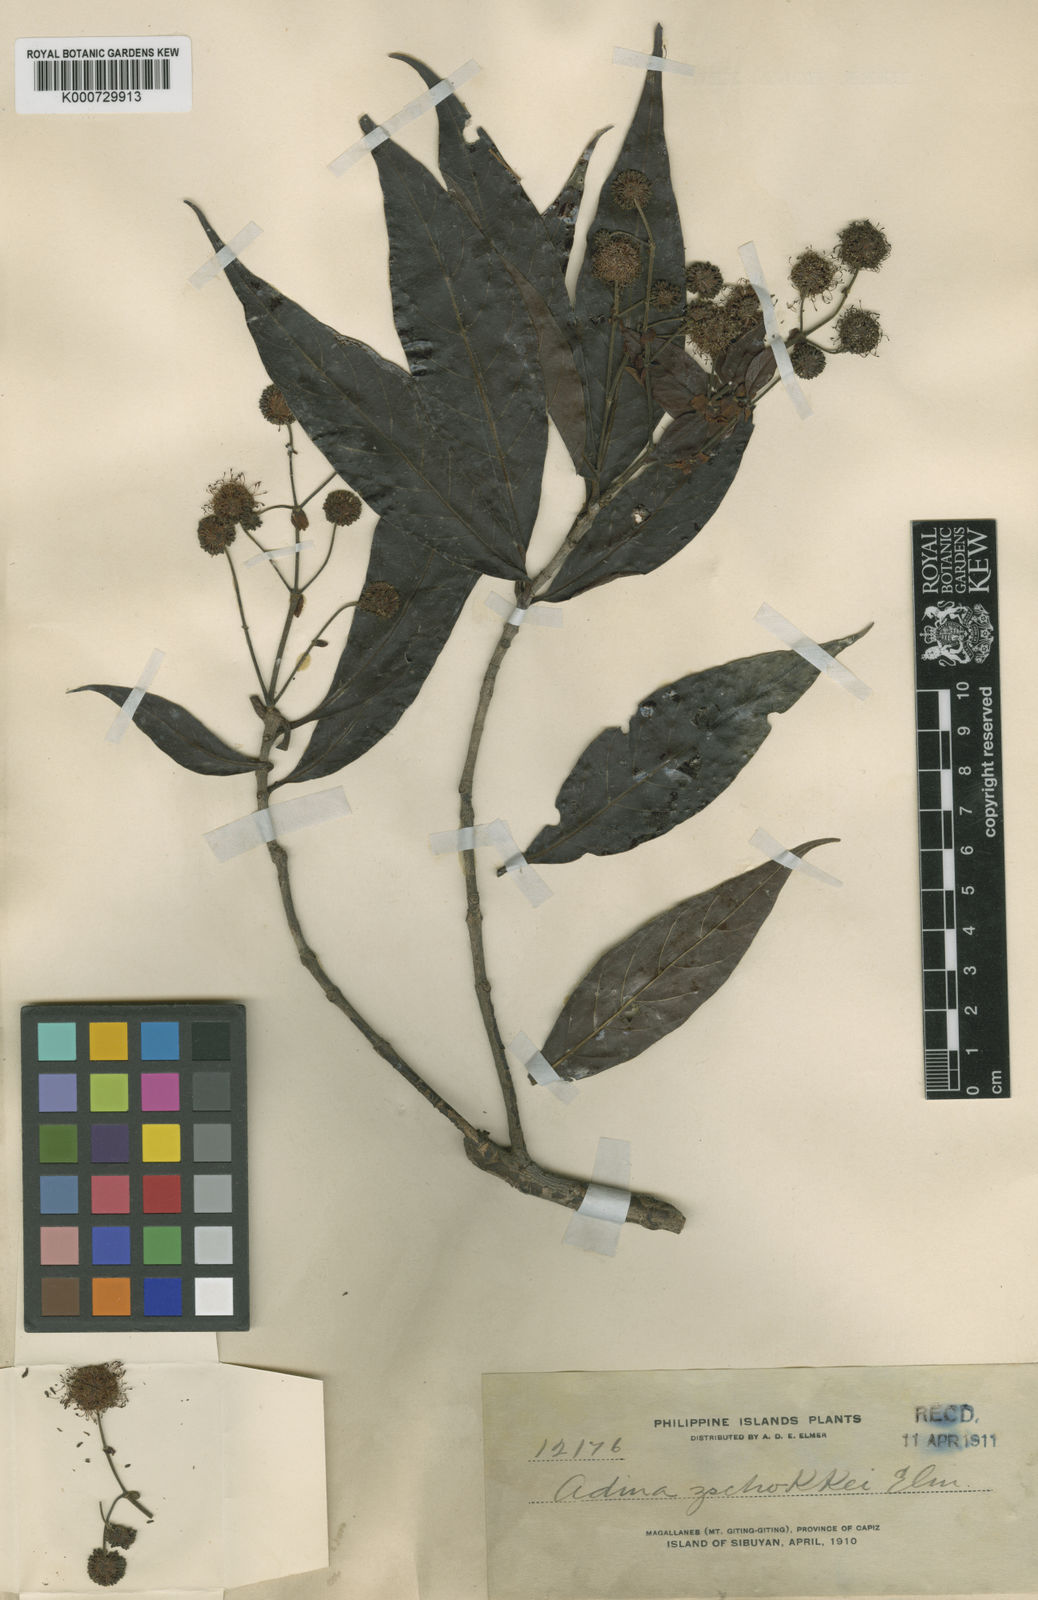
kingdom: Plantae
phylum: Tracheophyta
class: Magnoliopsida
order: Gentianales
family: Rubiaceae
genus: Adina
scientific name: Adina trichotoma
